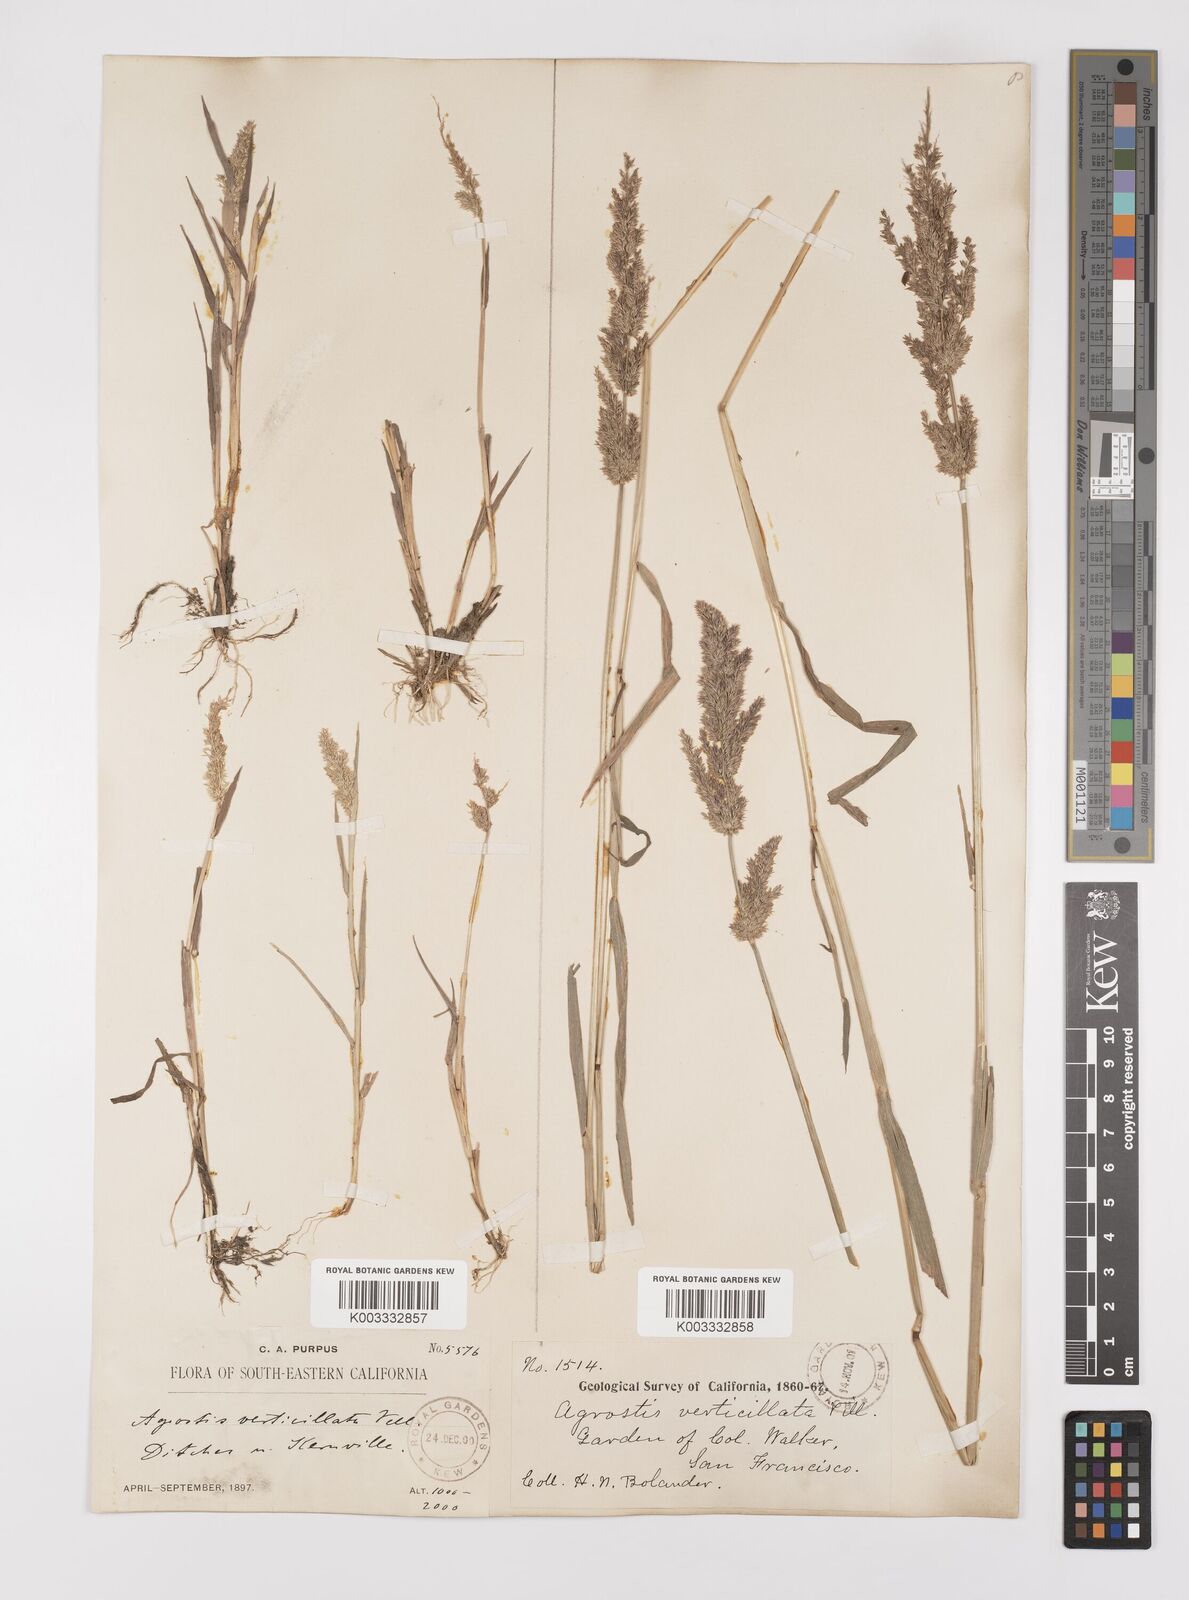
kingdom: Plantae
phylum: Tracheophyta
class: Liliopsida
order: Poales
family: Poaceae
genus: Polypogon
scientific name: Polypogon viridis
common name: Water bent
